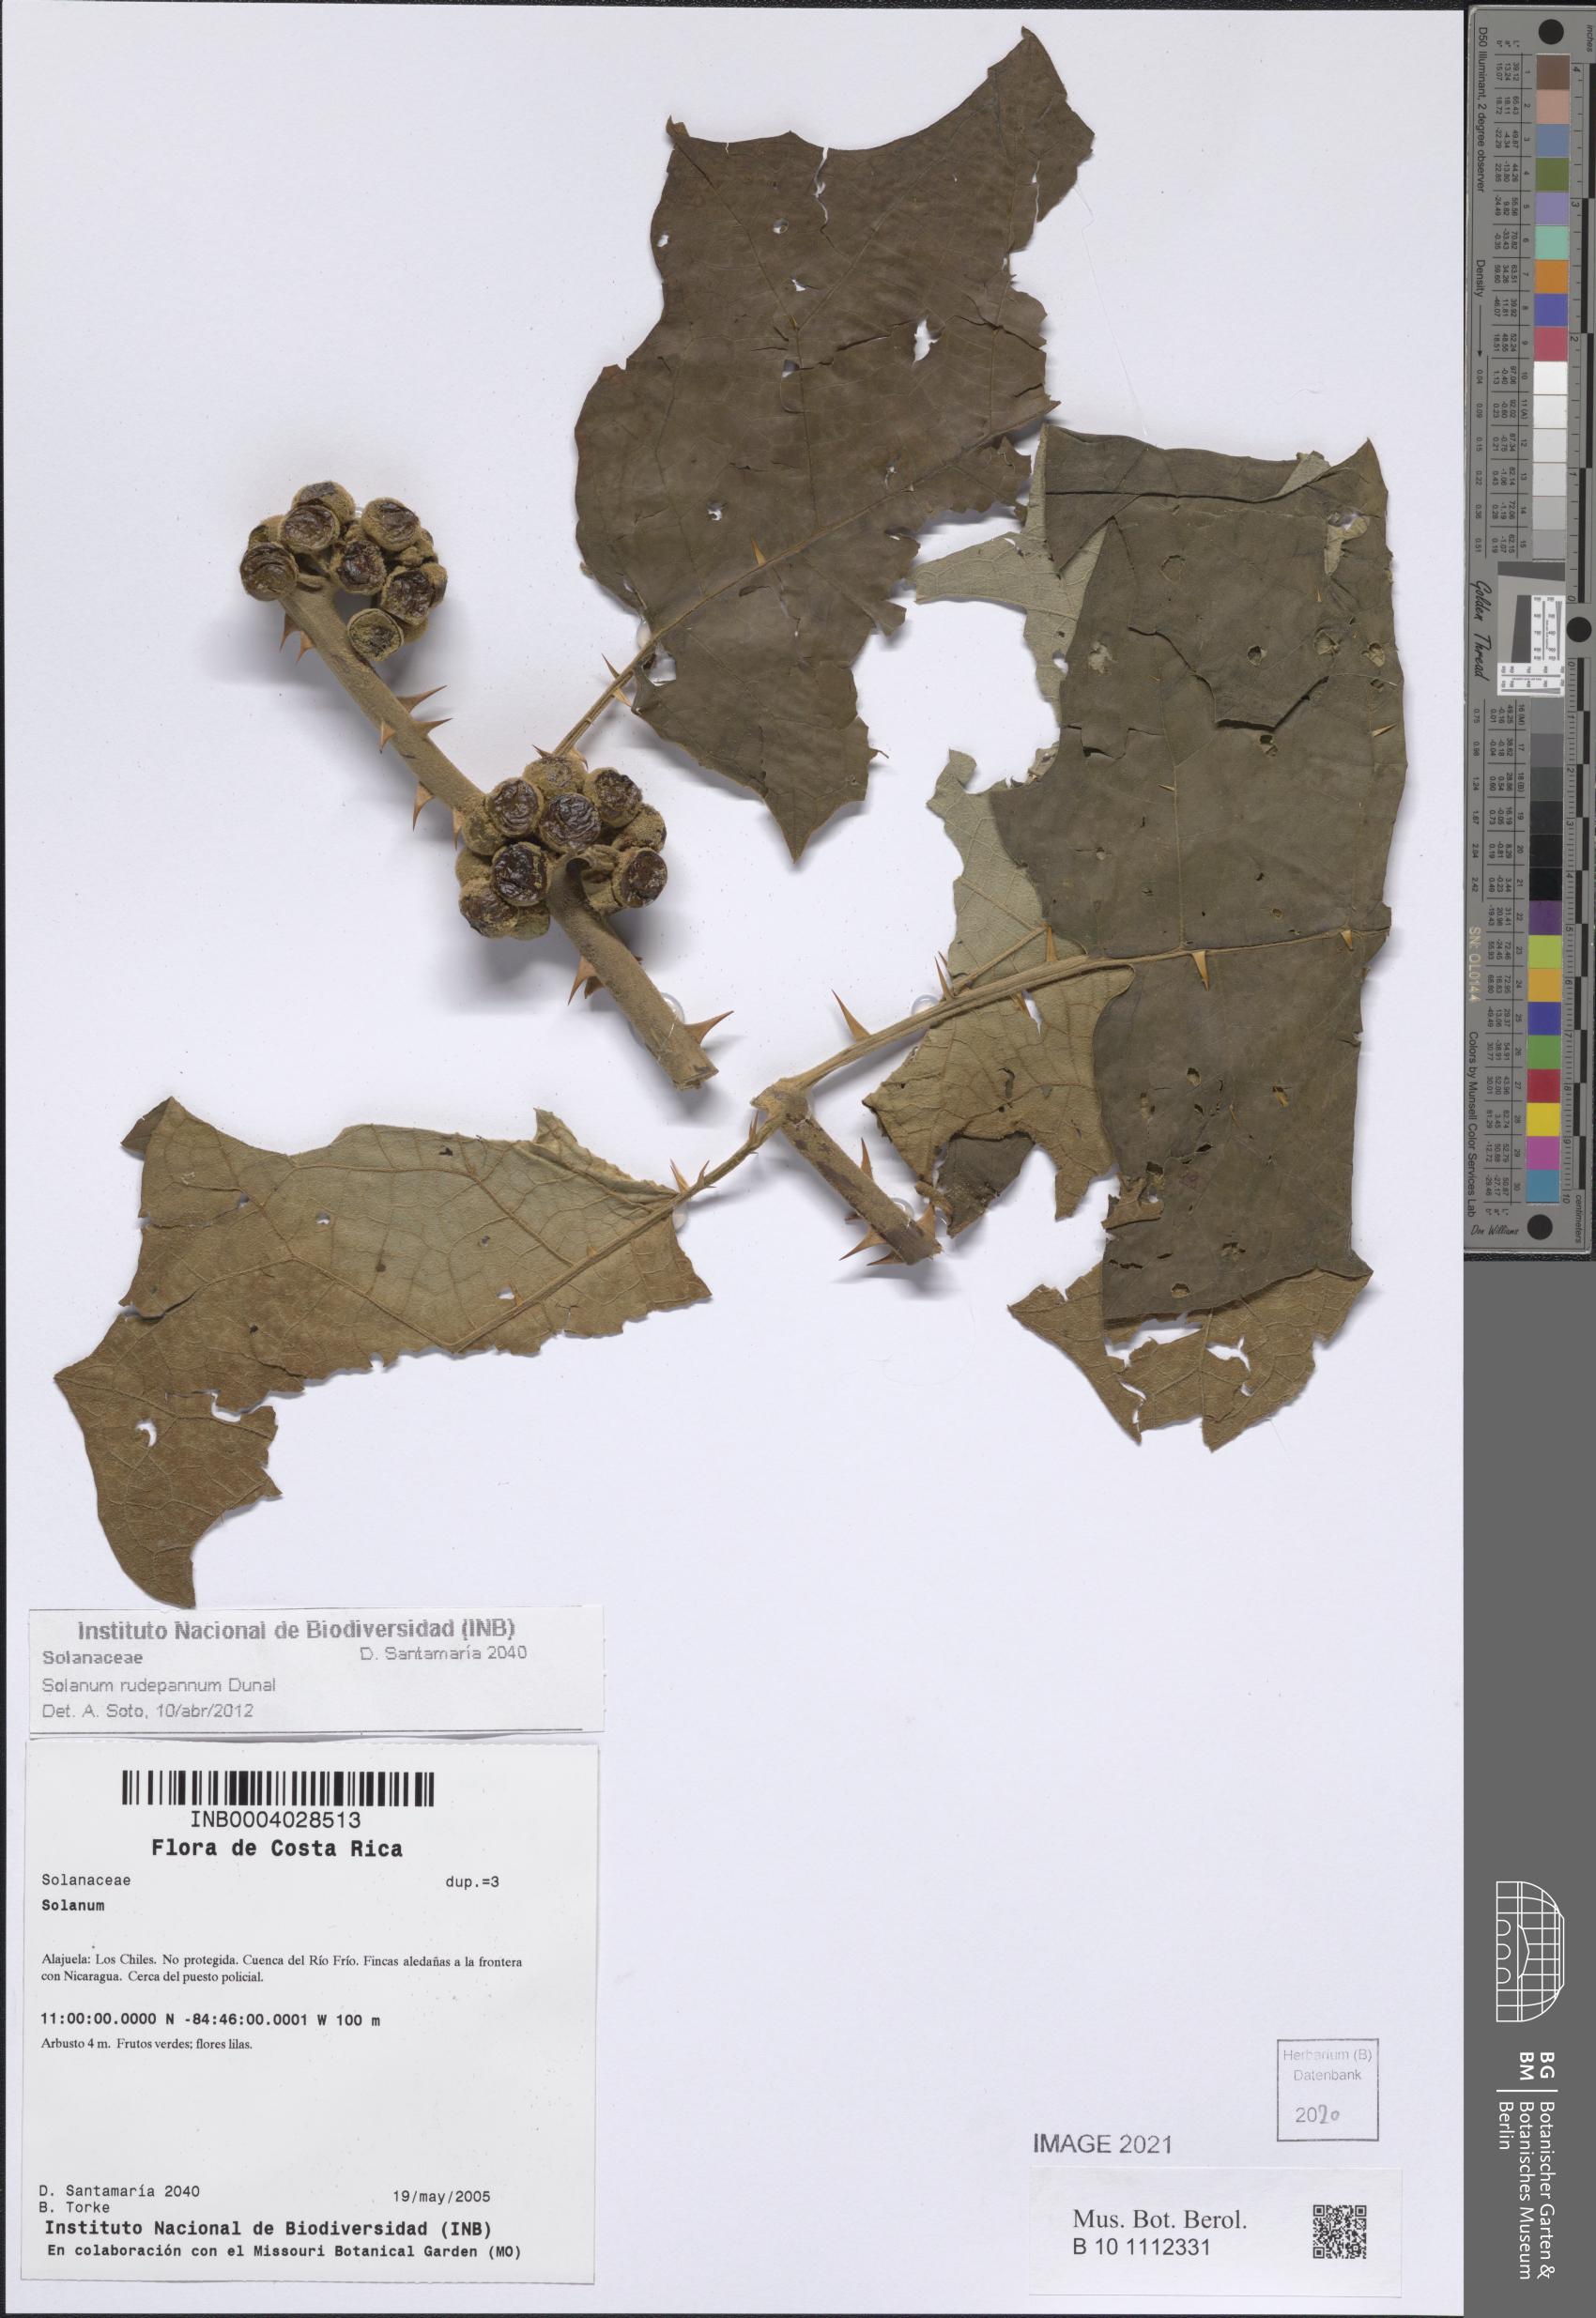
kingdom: Plantae
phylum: Tracheophyta
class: Magnoliopsida
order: Solanales
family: Solanaceae
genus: Solanum
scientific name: Solanum rude-pannum
